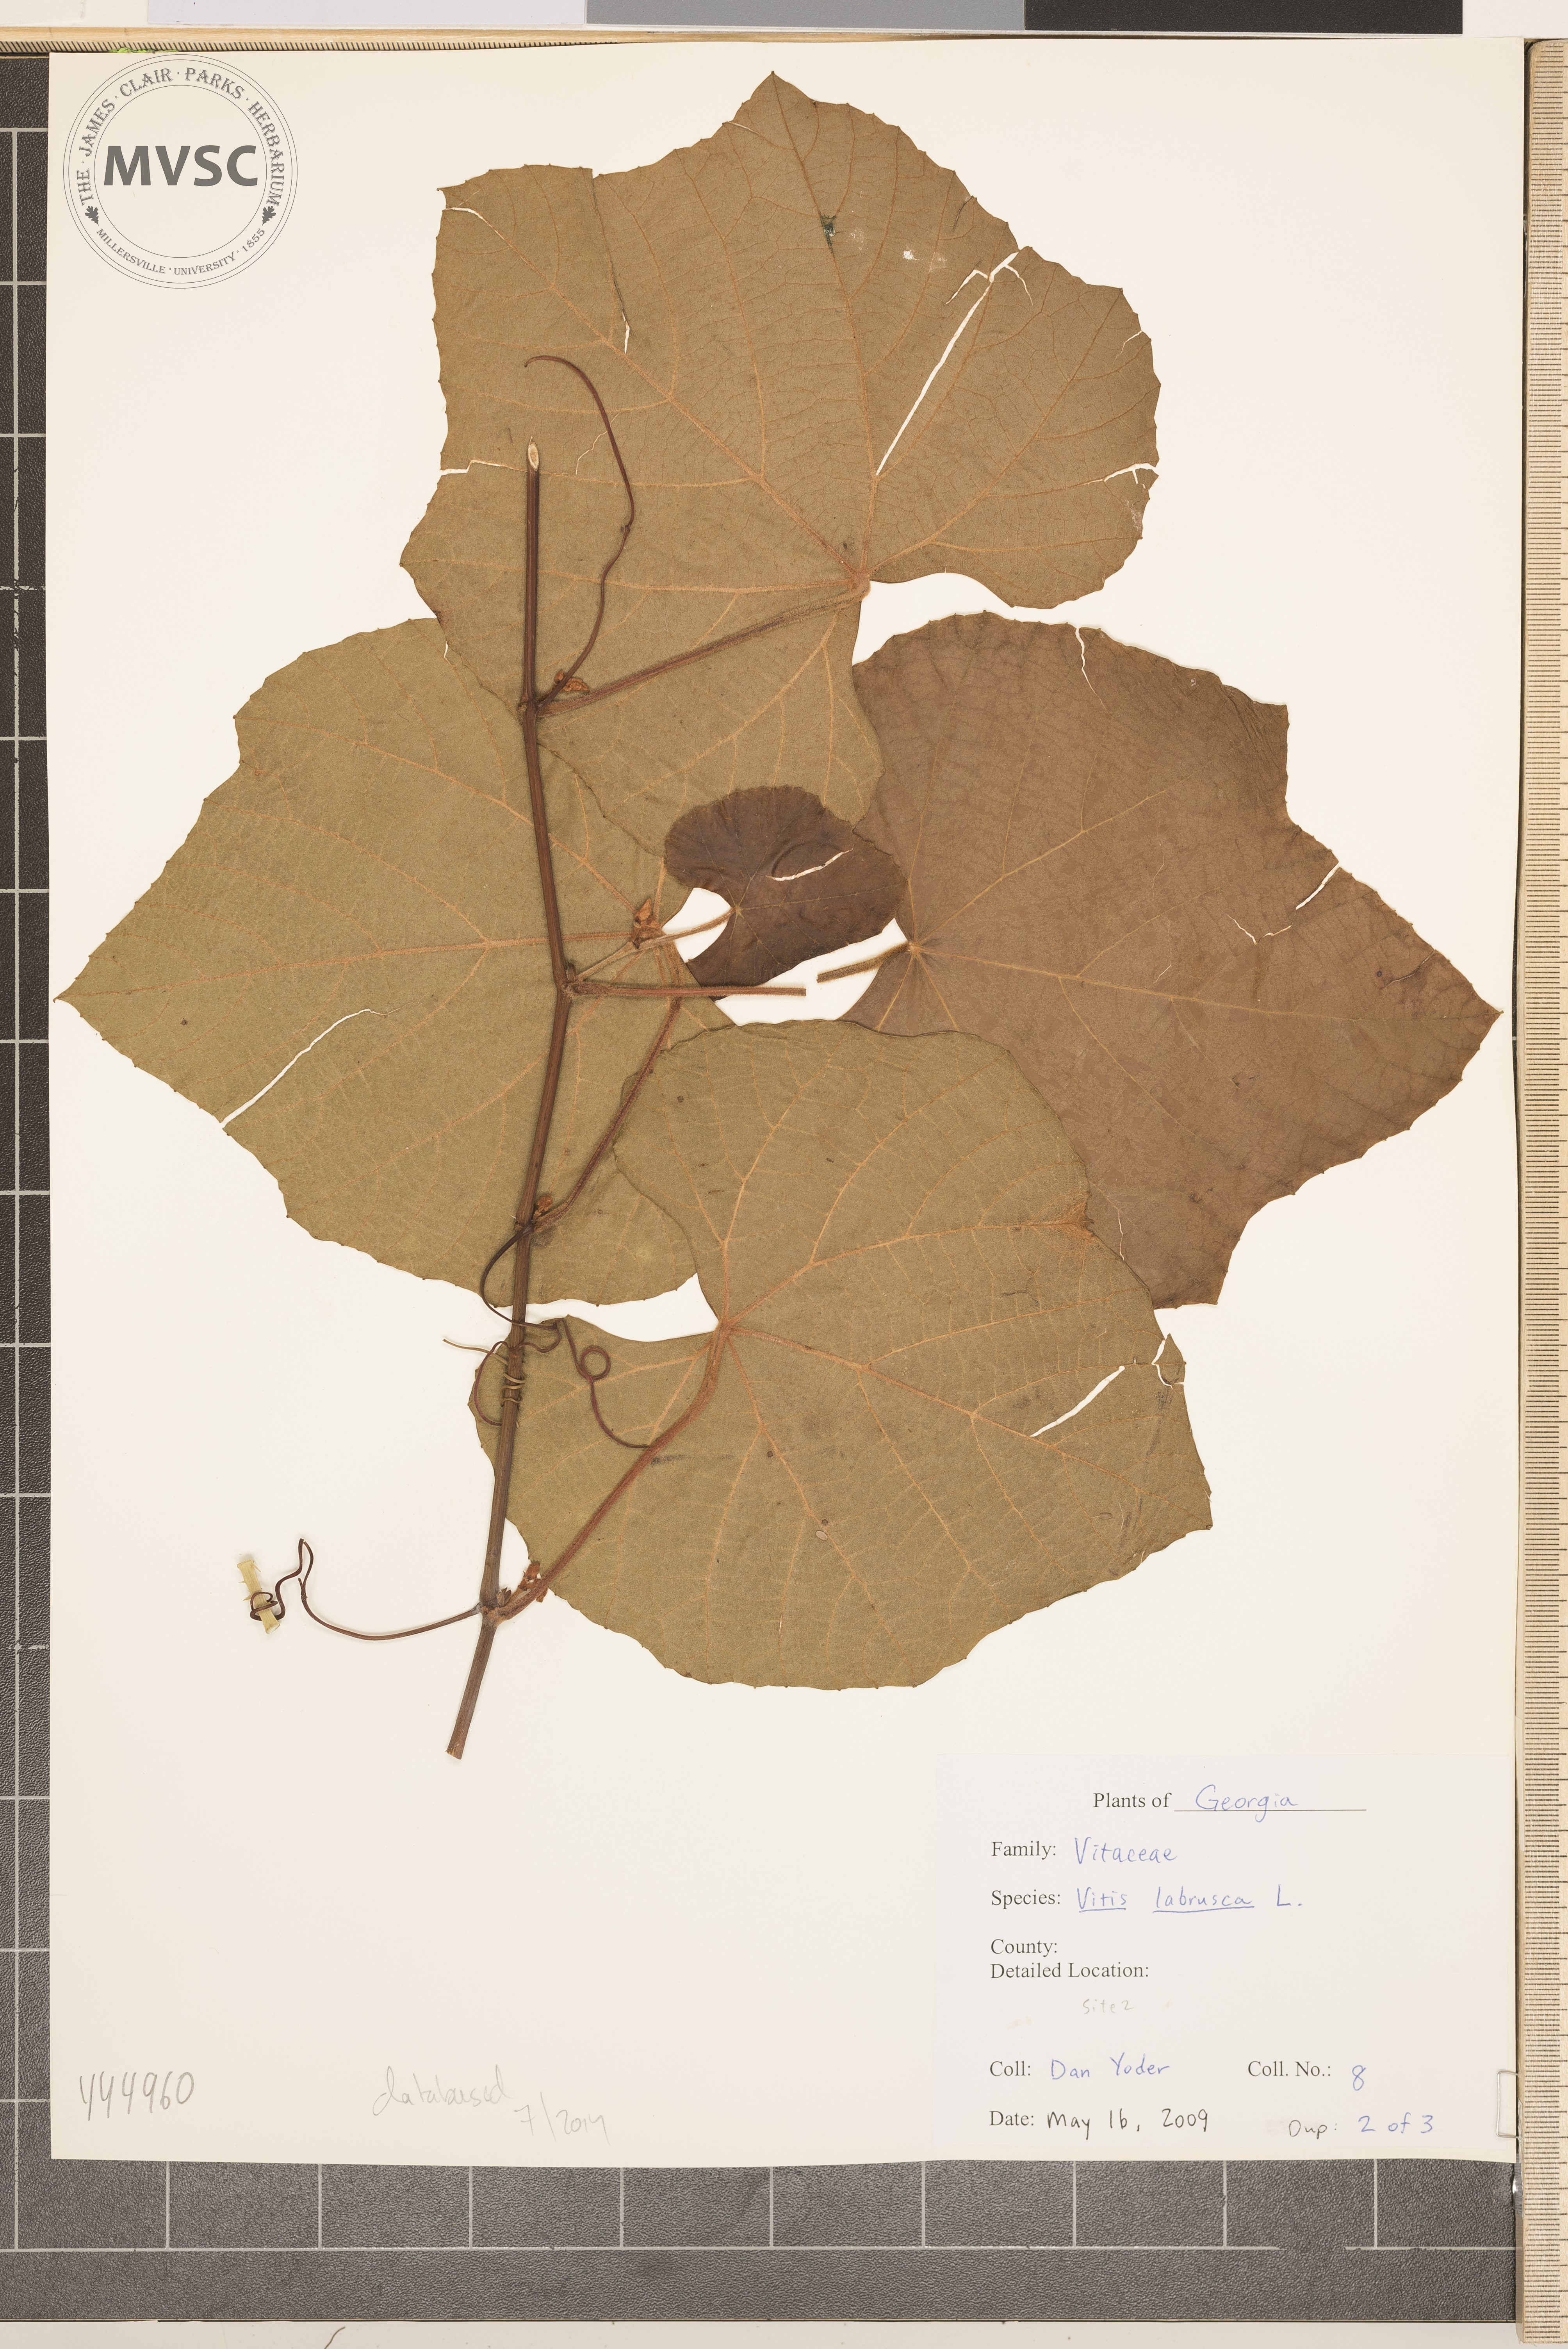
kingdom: Plantae
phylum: Tracheophyta
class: Magnoliopsida
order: Vitales
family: Vitaceae
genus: Vitis
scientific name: Vitis labrusca
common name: fox grape
